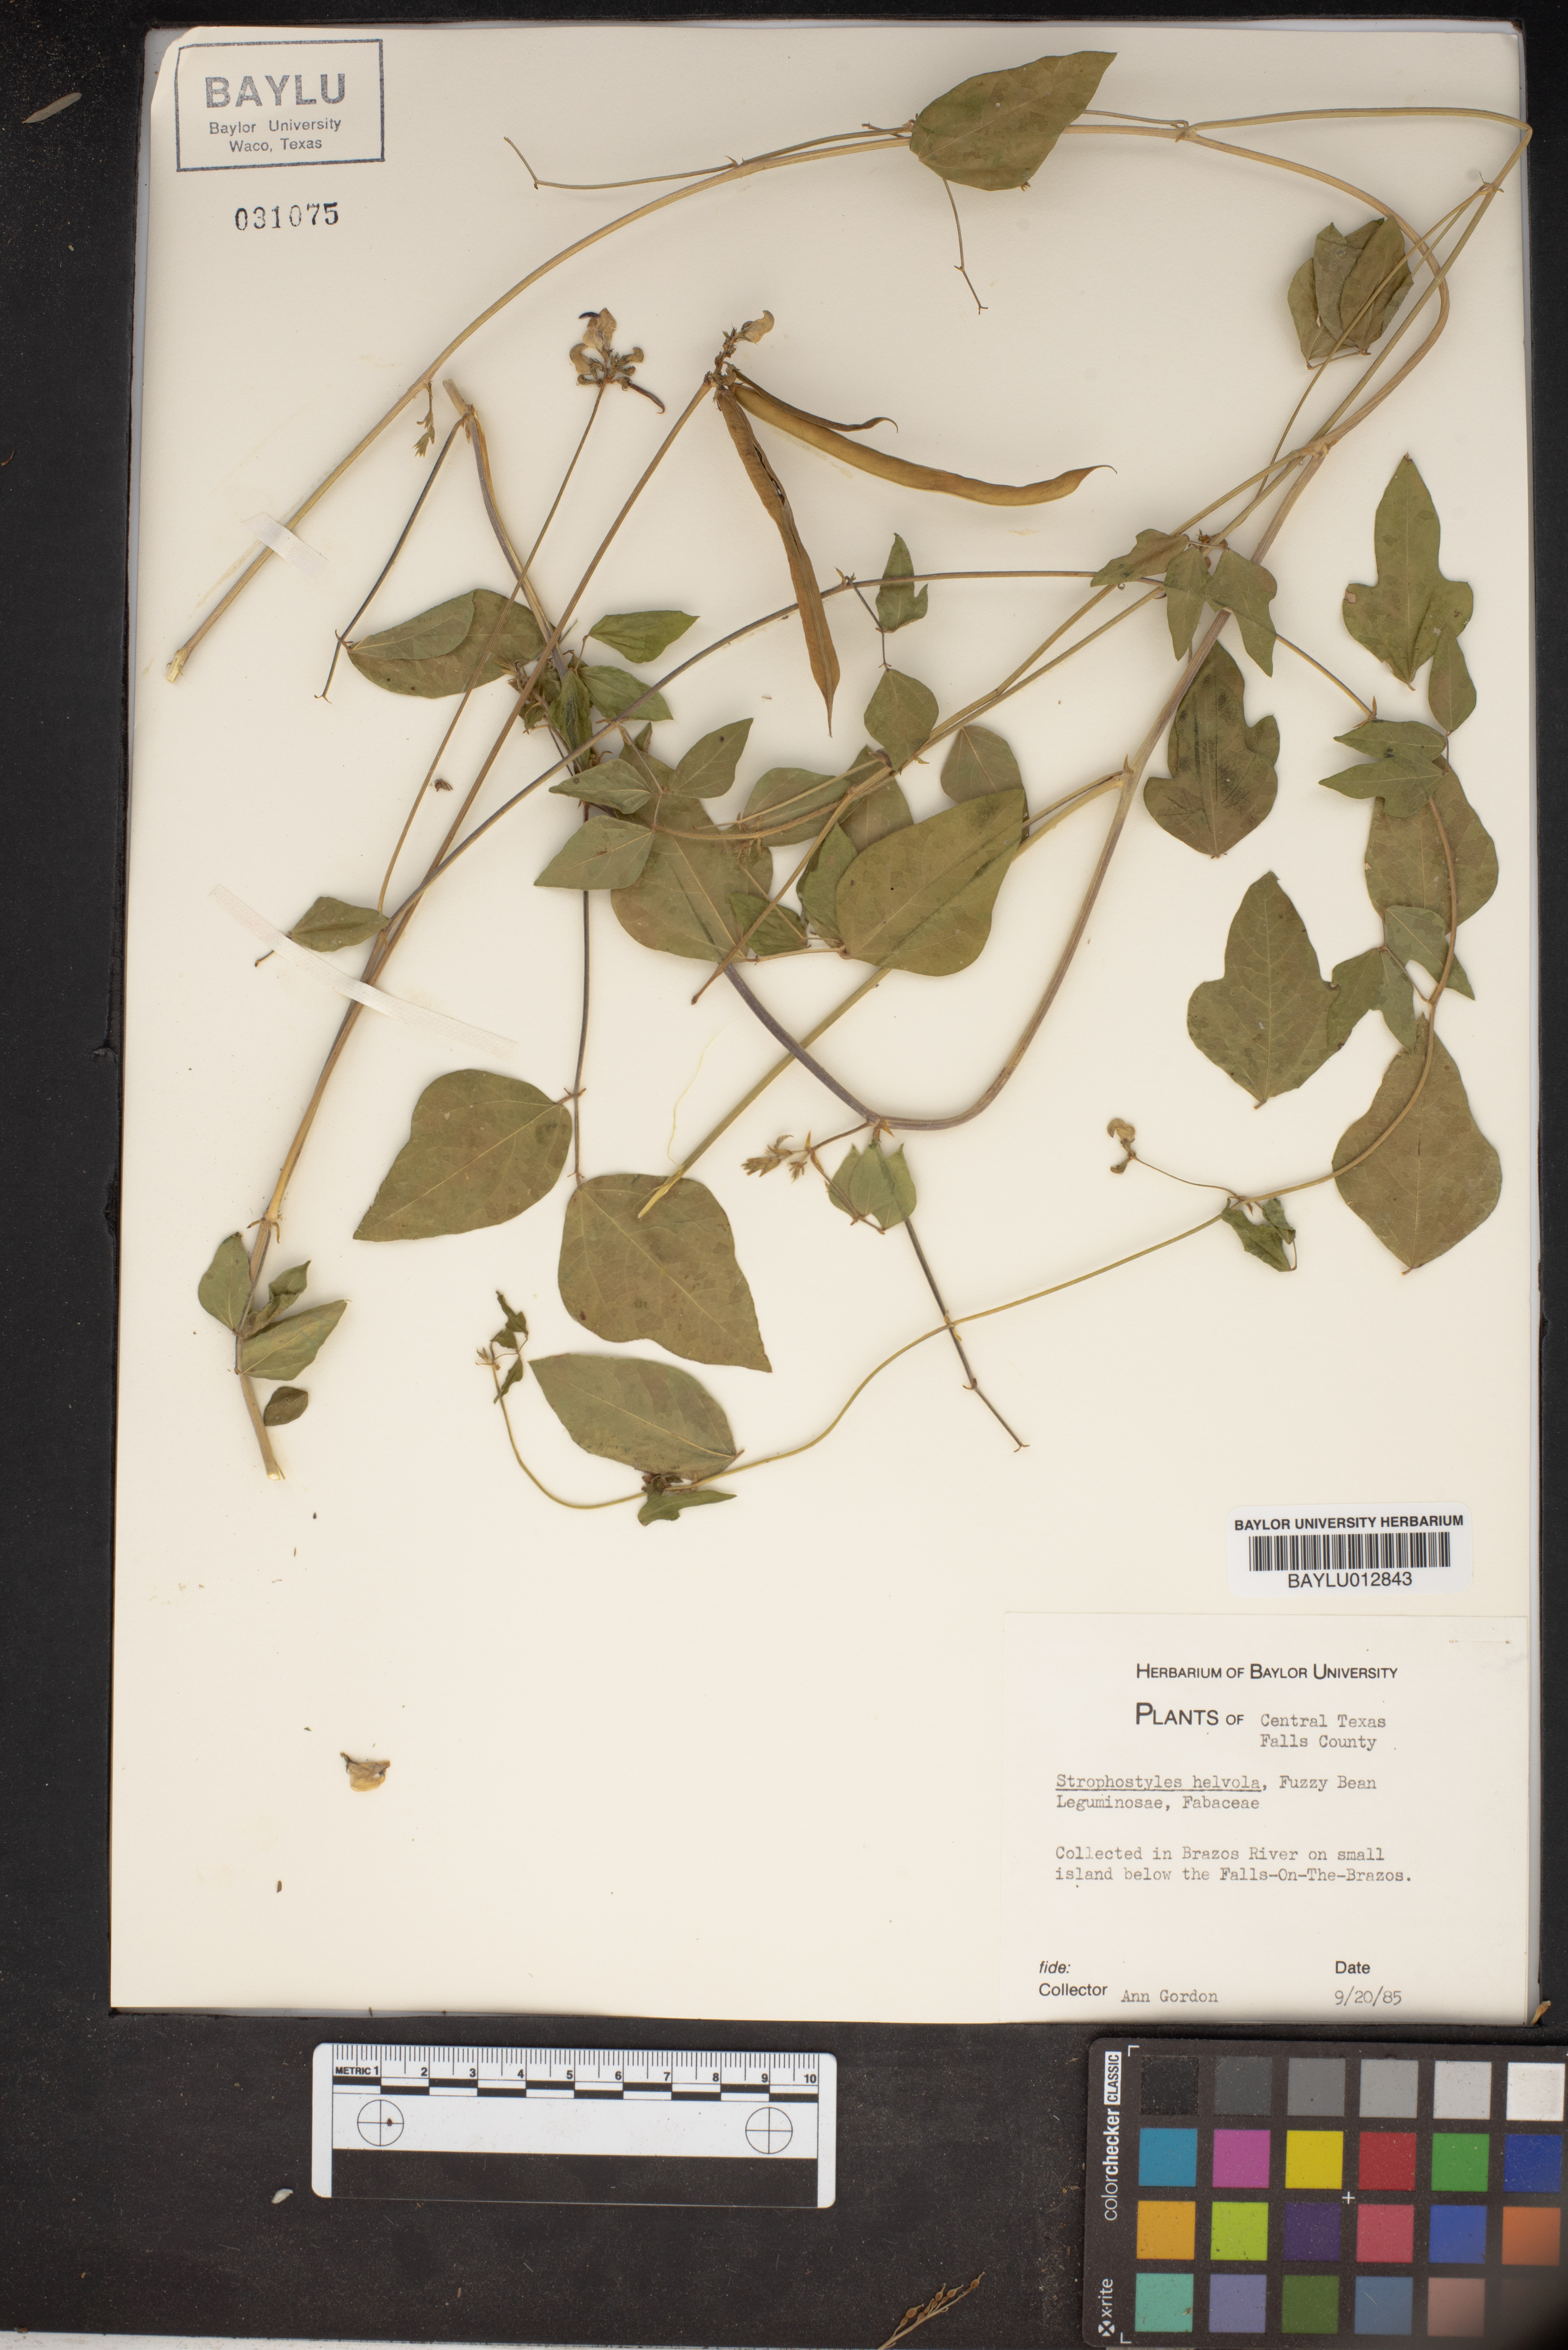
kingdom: Plantae
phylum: Tracheophyta
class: Magnoliopsida
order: Fabales
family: Fabaceae
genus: Strophostyles
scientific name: Strophostyles helvola
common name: Trailing wild bean
